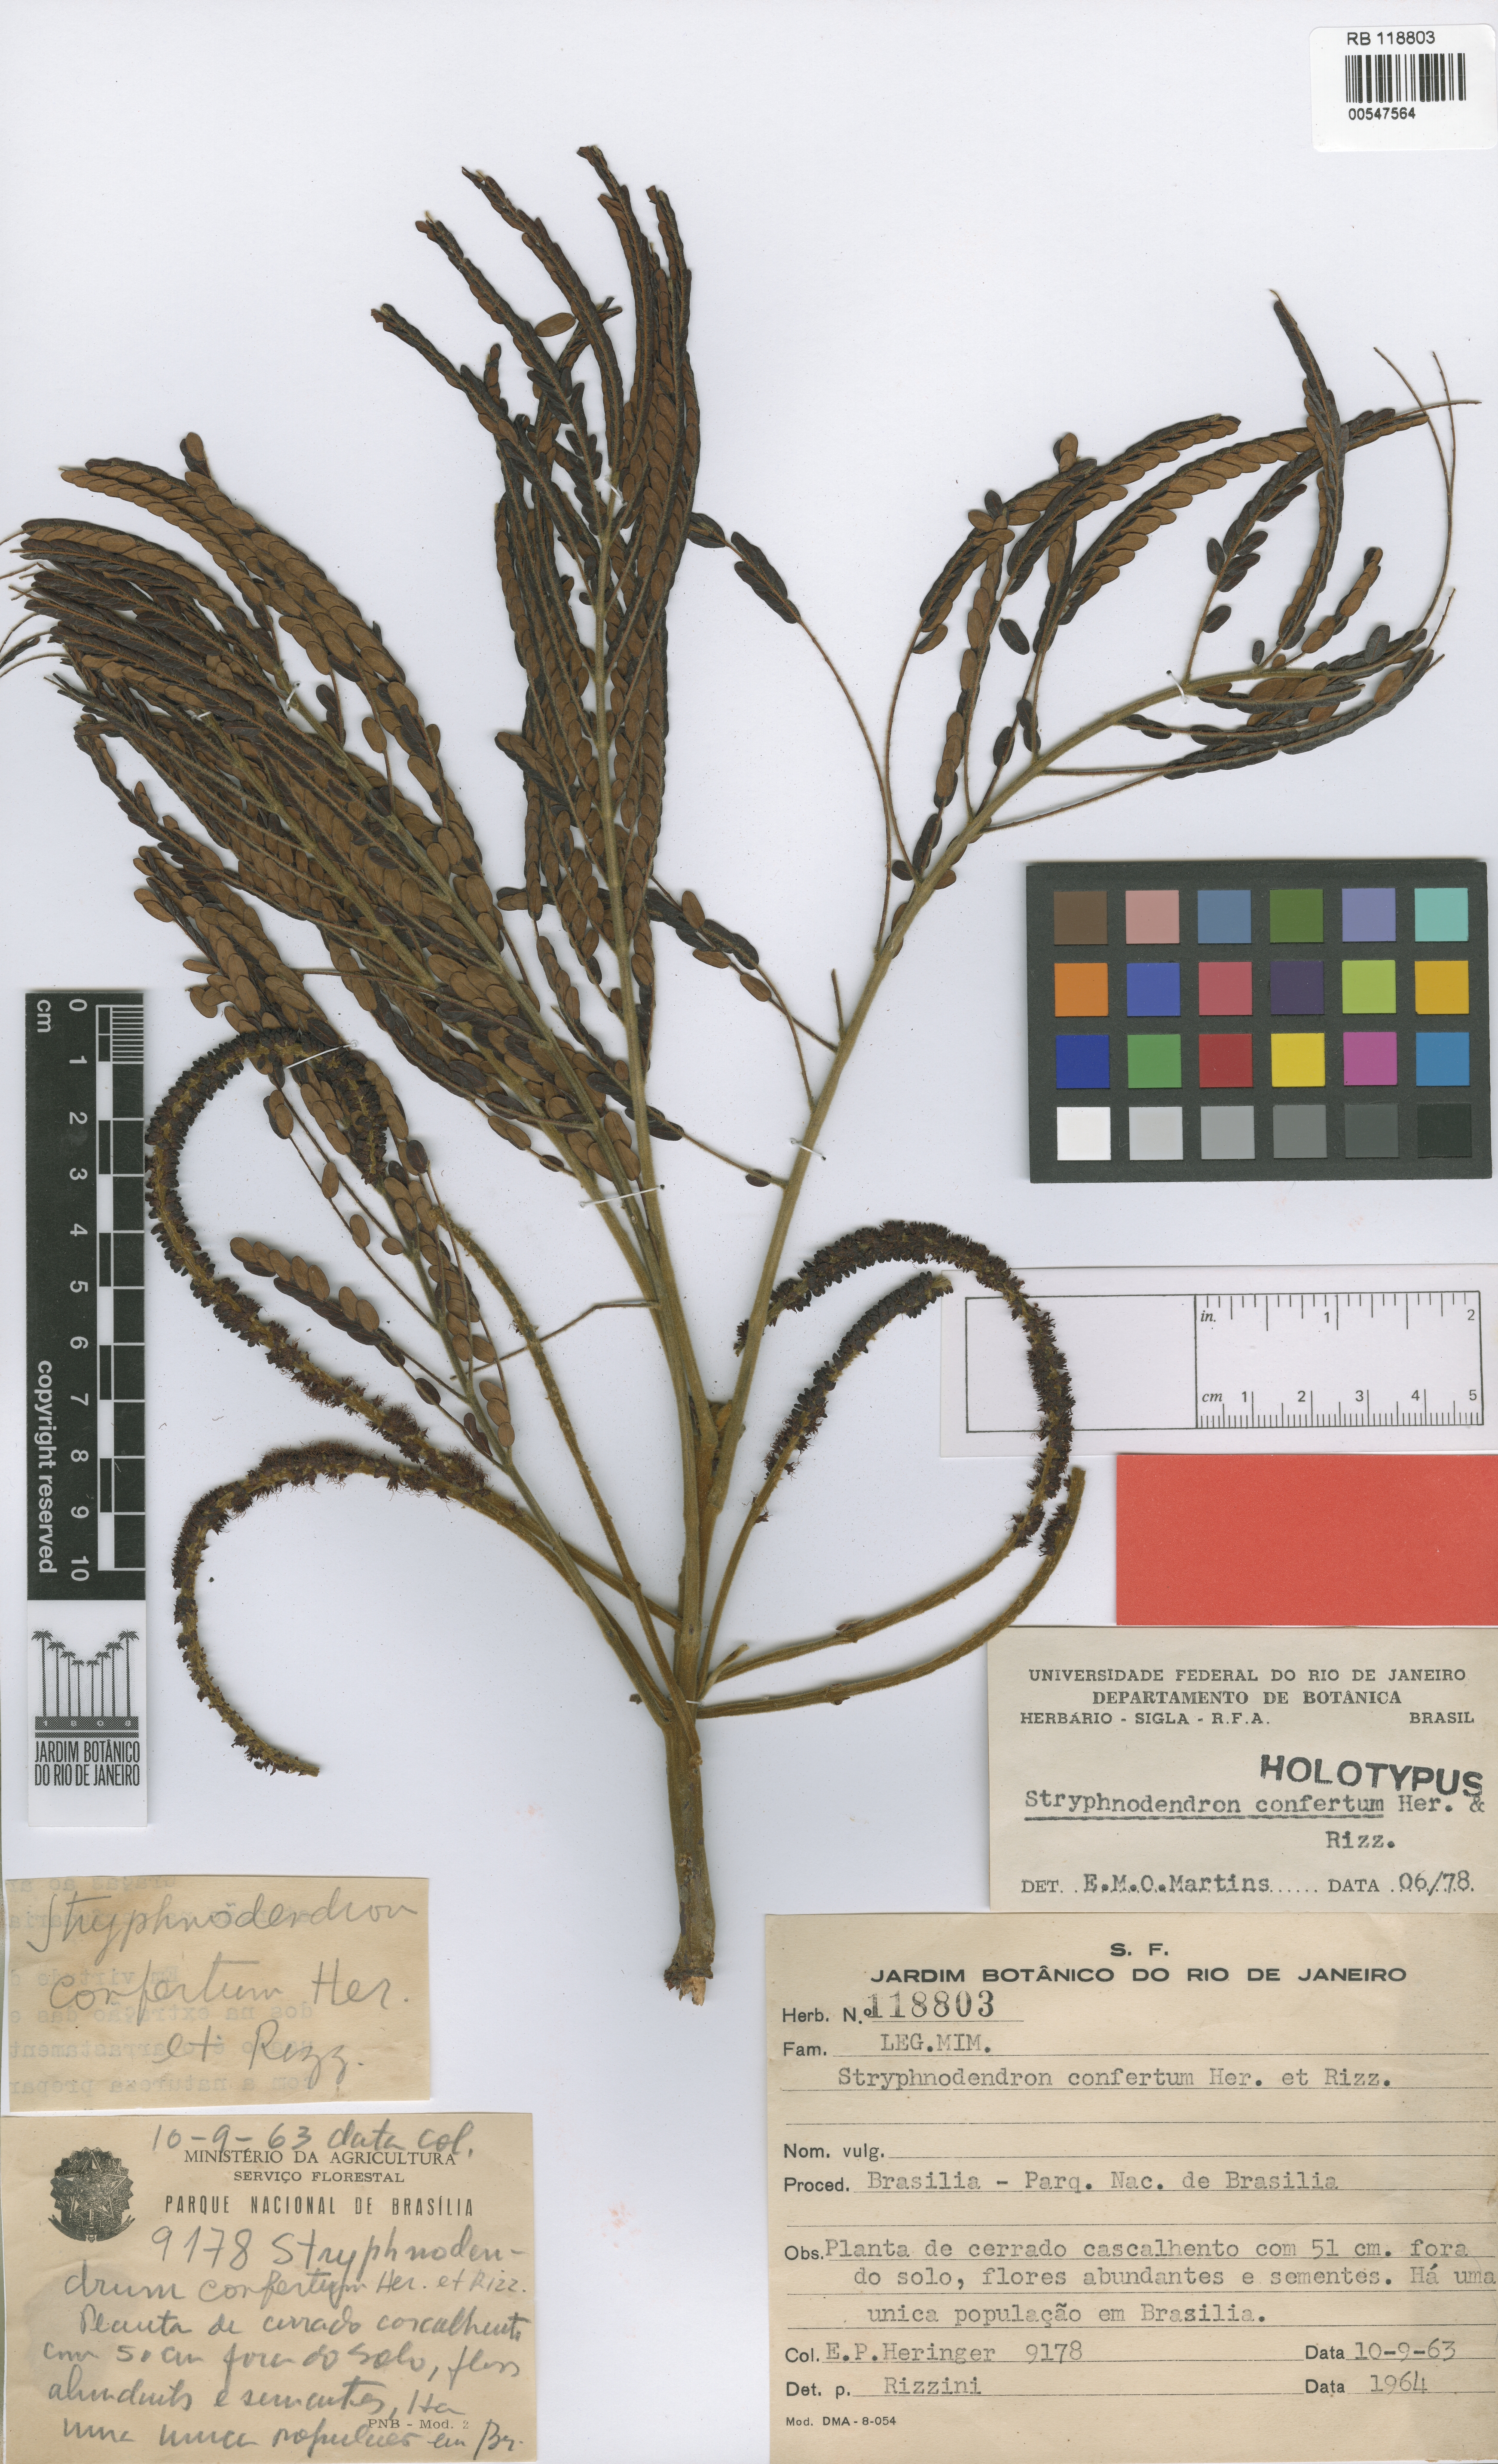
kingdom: Plantae
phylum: Tracheophyta
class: Magnoliopsida
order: Fabales
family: Fabaceae
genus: Stryphnodendron
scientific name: Stryphnodendron confertum
